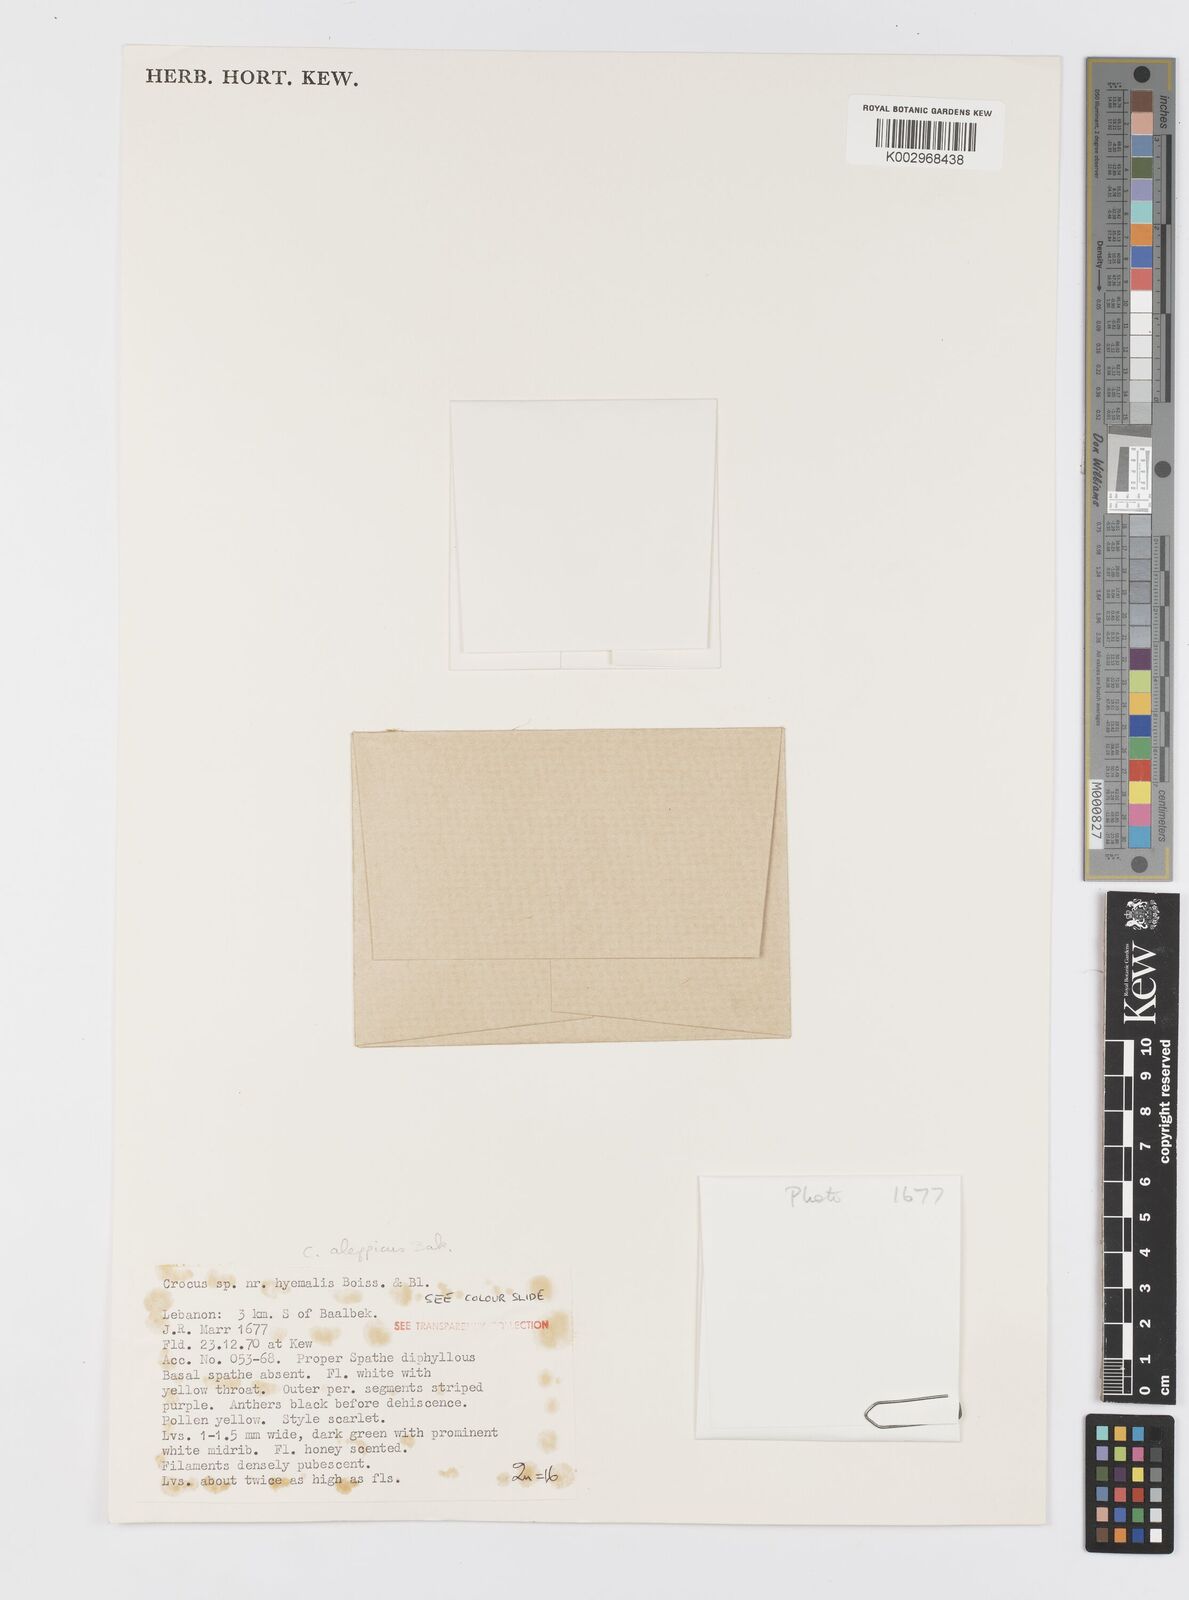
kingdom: Plantae
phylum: Tracheophyta
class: Liliopsida
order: Asparagales
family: Iridaceae
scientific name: Iridaceae
